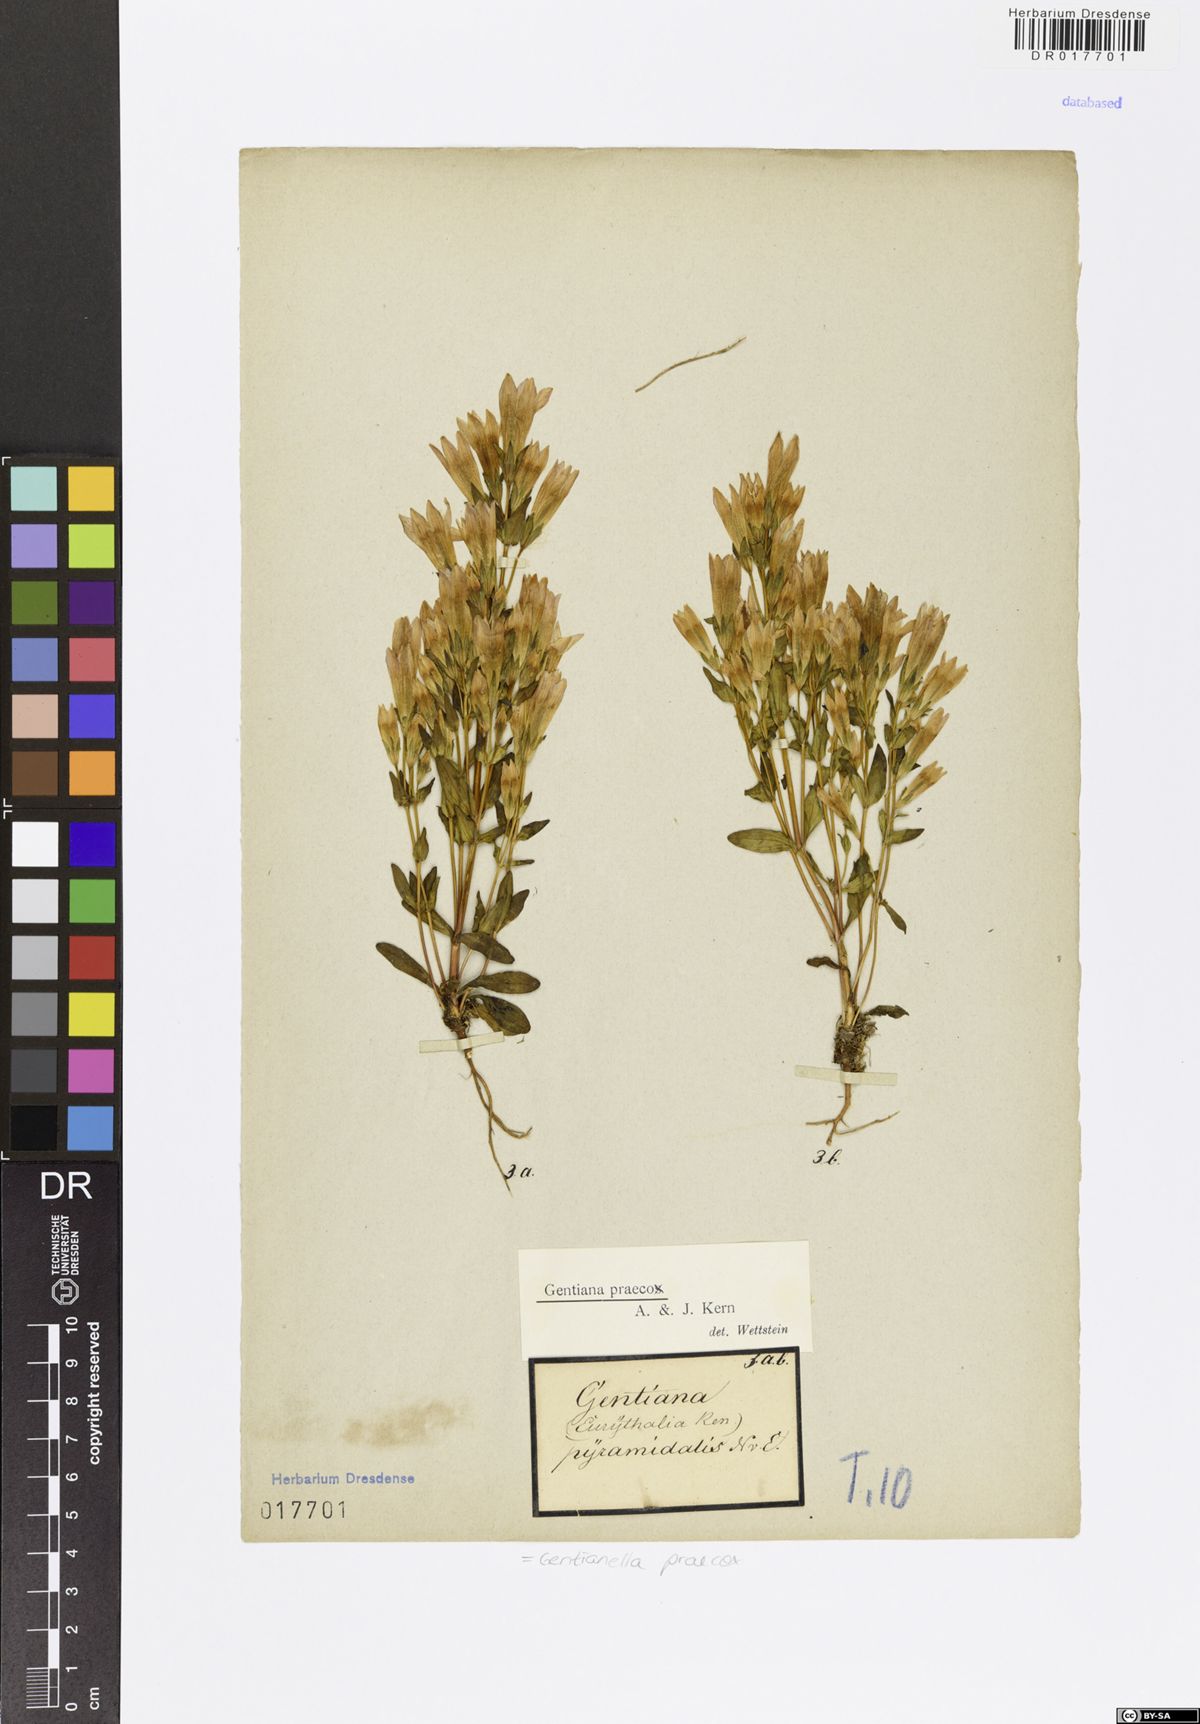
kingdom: Plantae
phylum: Tracheophyta
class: Magnoliopsida
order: Gentianales
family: Gentianaceae
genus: Gentianella
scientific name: Gentianella praecox
